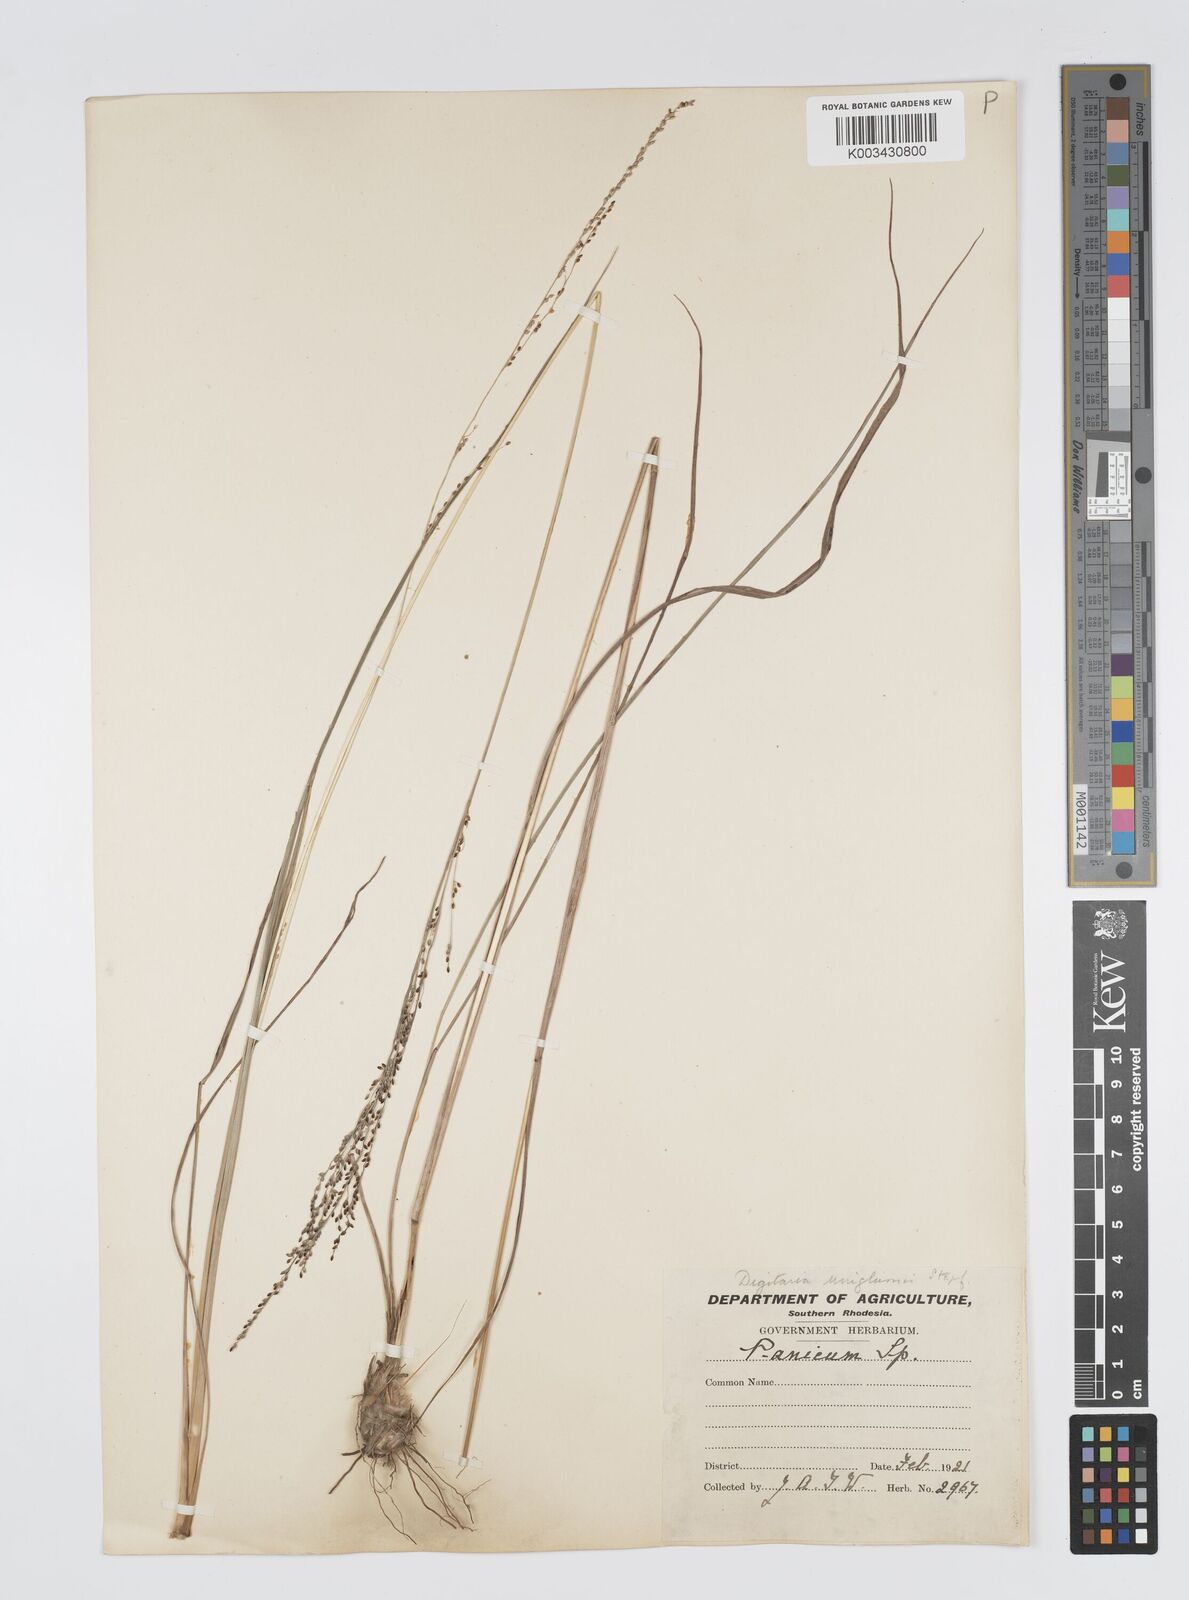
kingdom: Plantae
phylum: Tracheophyta
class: Liliopsida
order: Poales
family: Poaceae
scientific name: Poaceae
